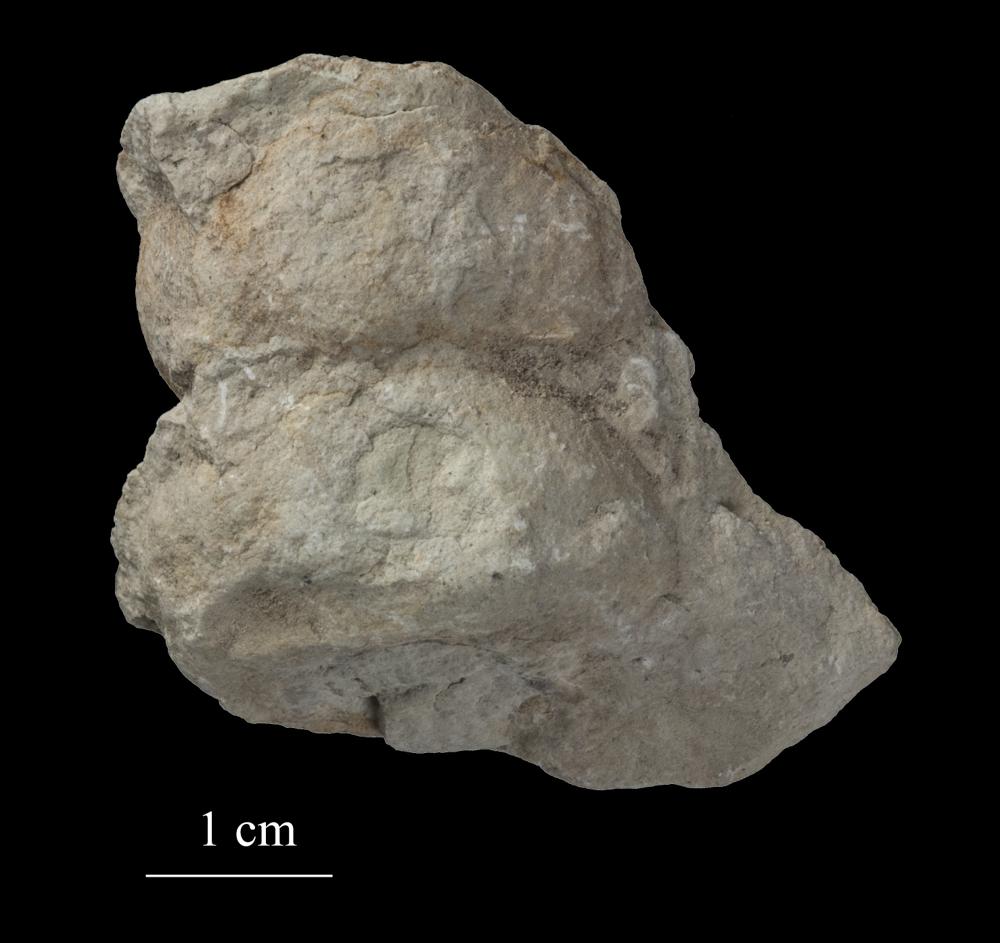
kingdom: Animalia
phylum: Mollusca
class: Gastropoda
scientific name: Gastropoda
